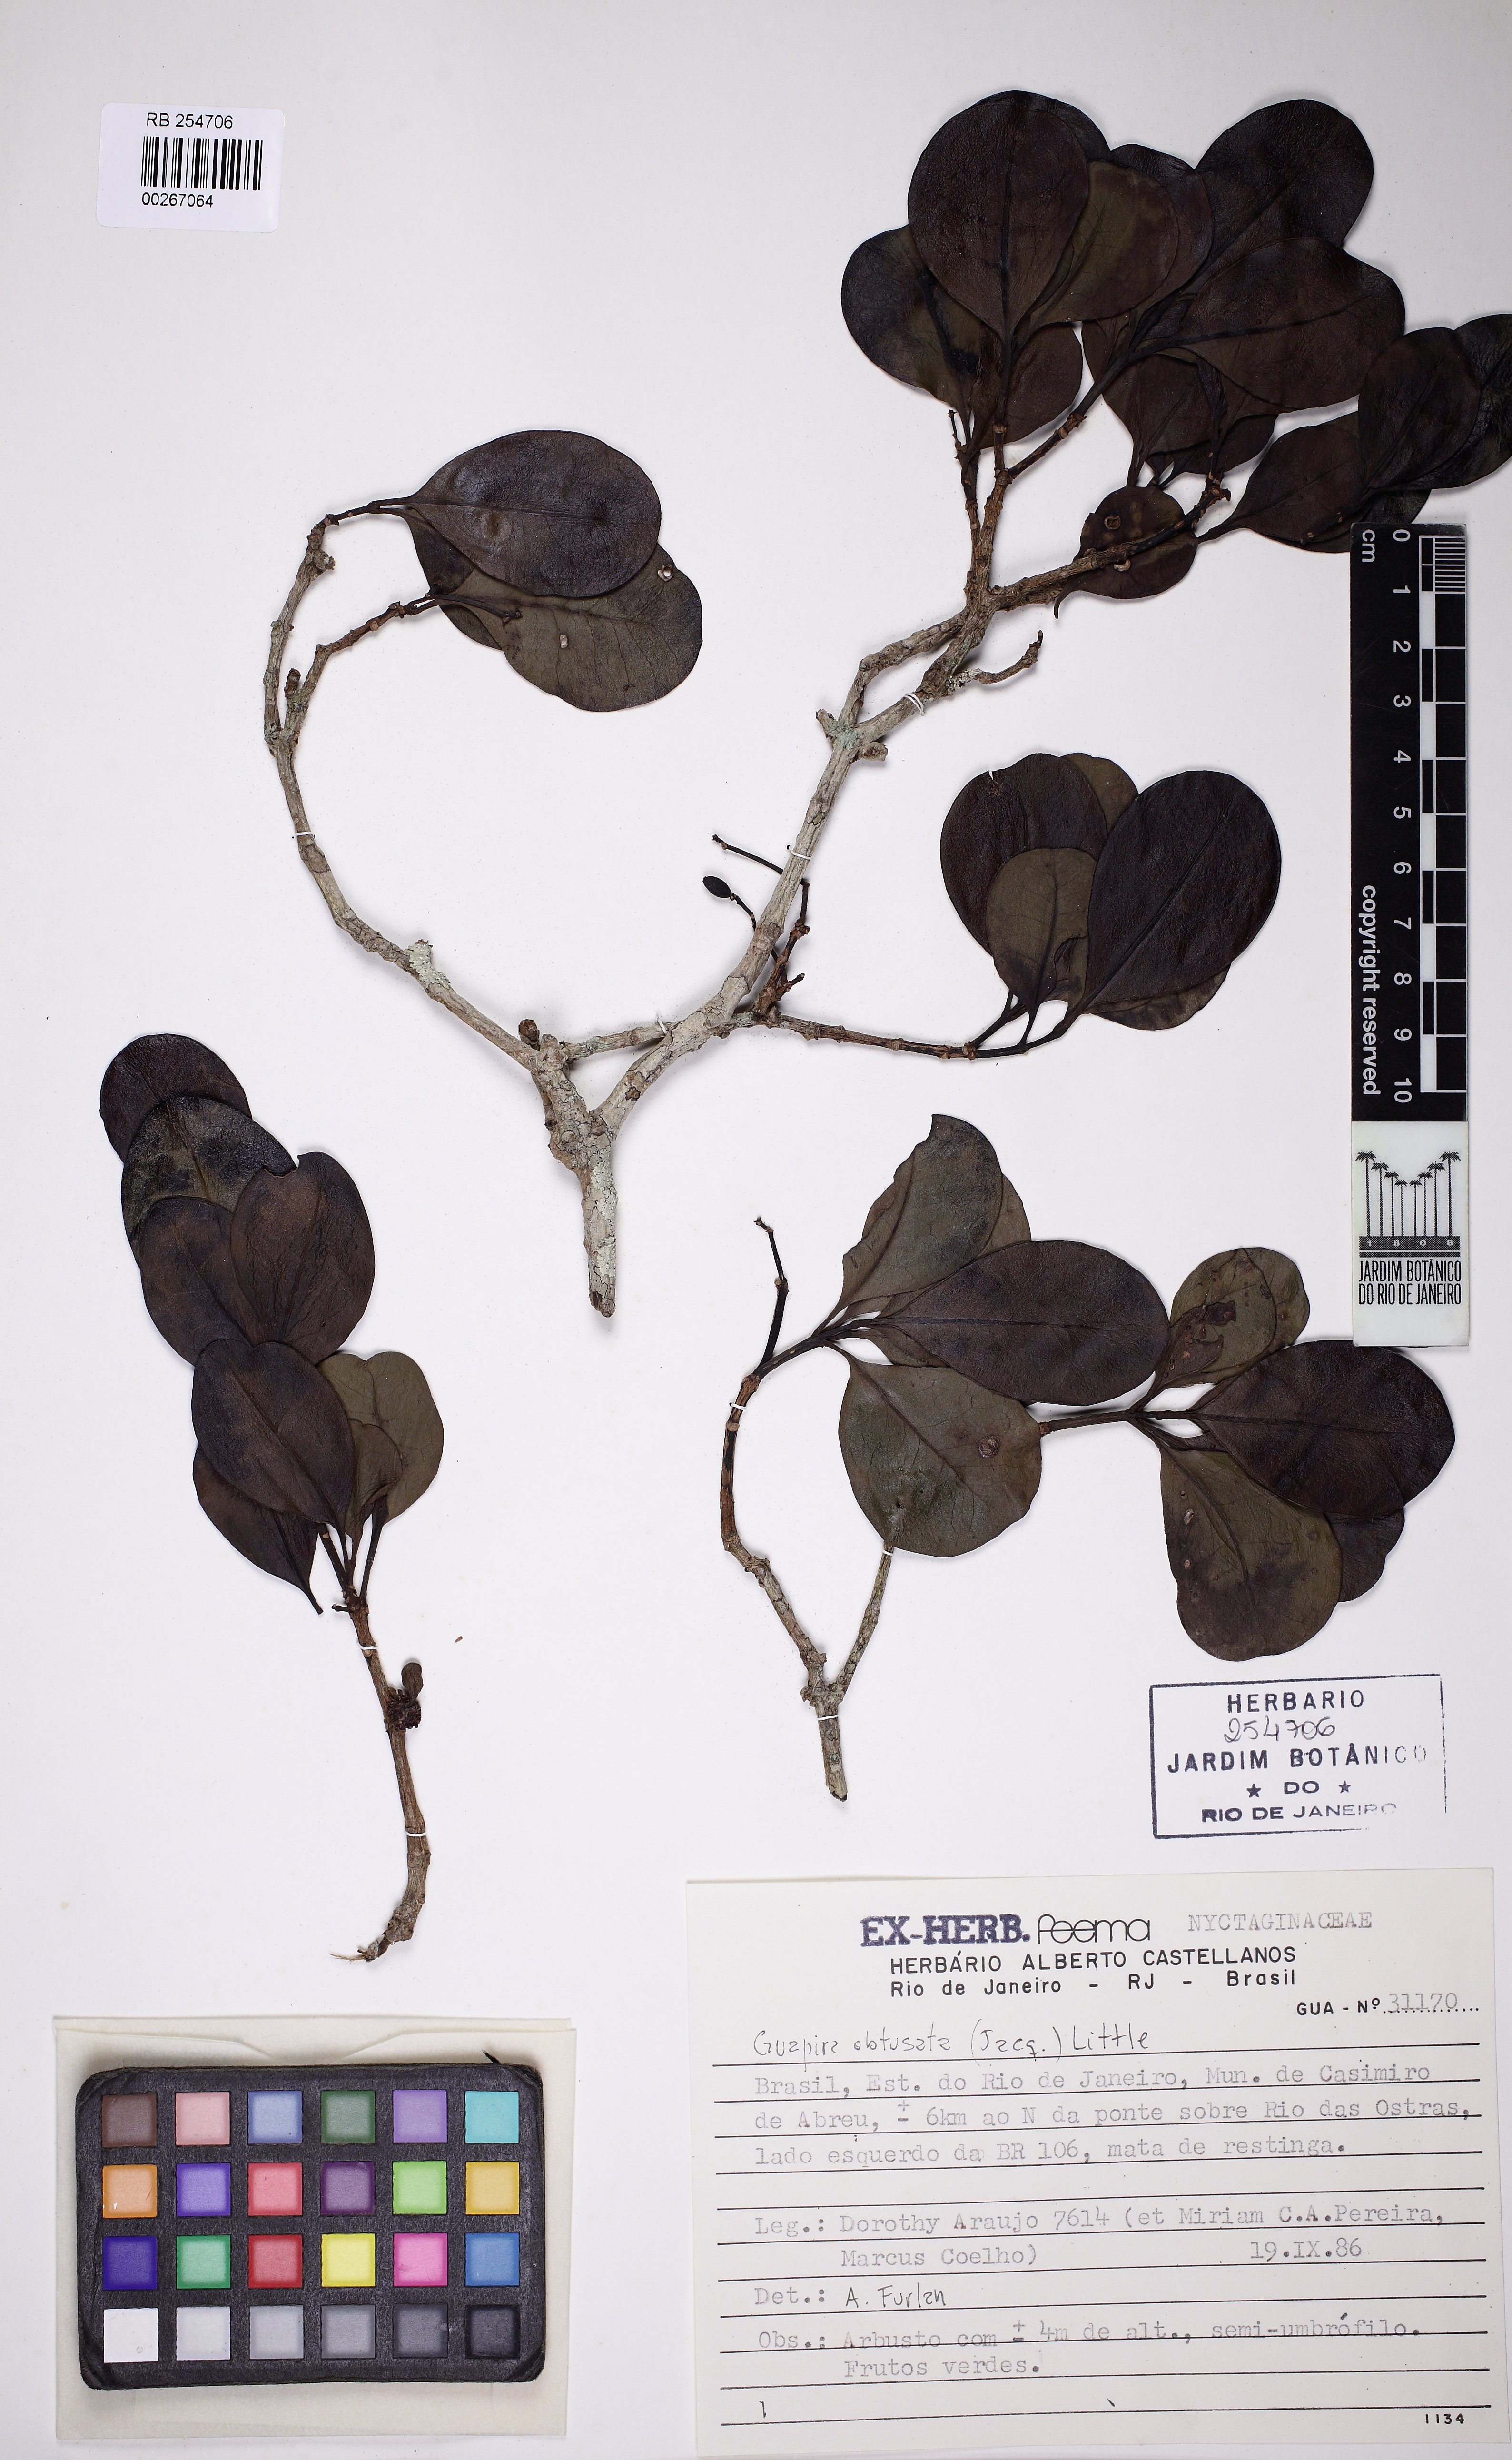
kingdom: Plantae
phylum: Tracheophyta
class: Magnoliopsida
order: Caryophyllales
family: Nyctaginaceae
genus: Guapira
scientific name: Guapira obtusata
